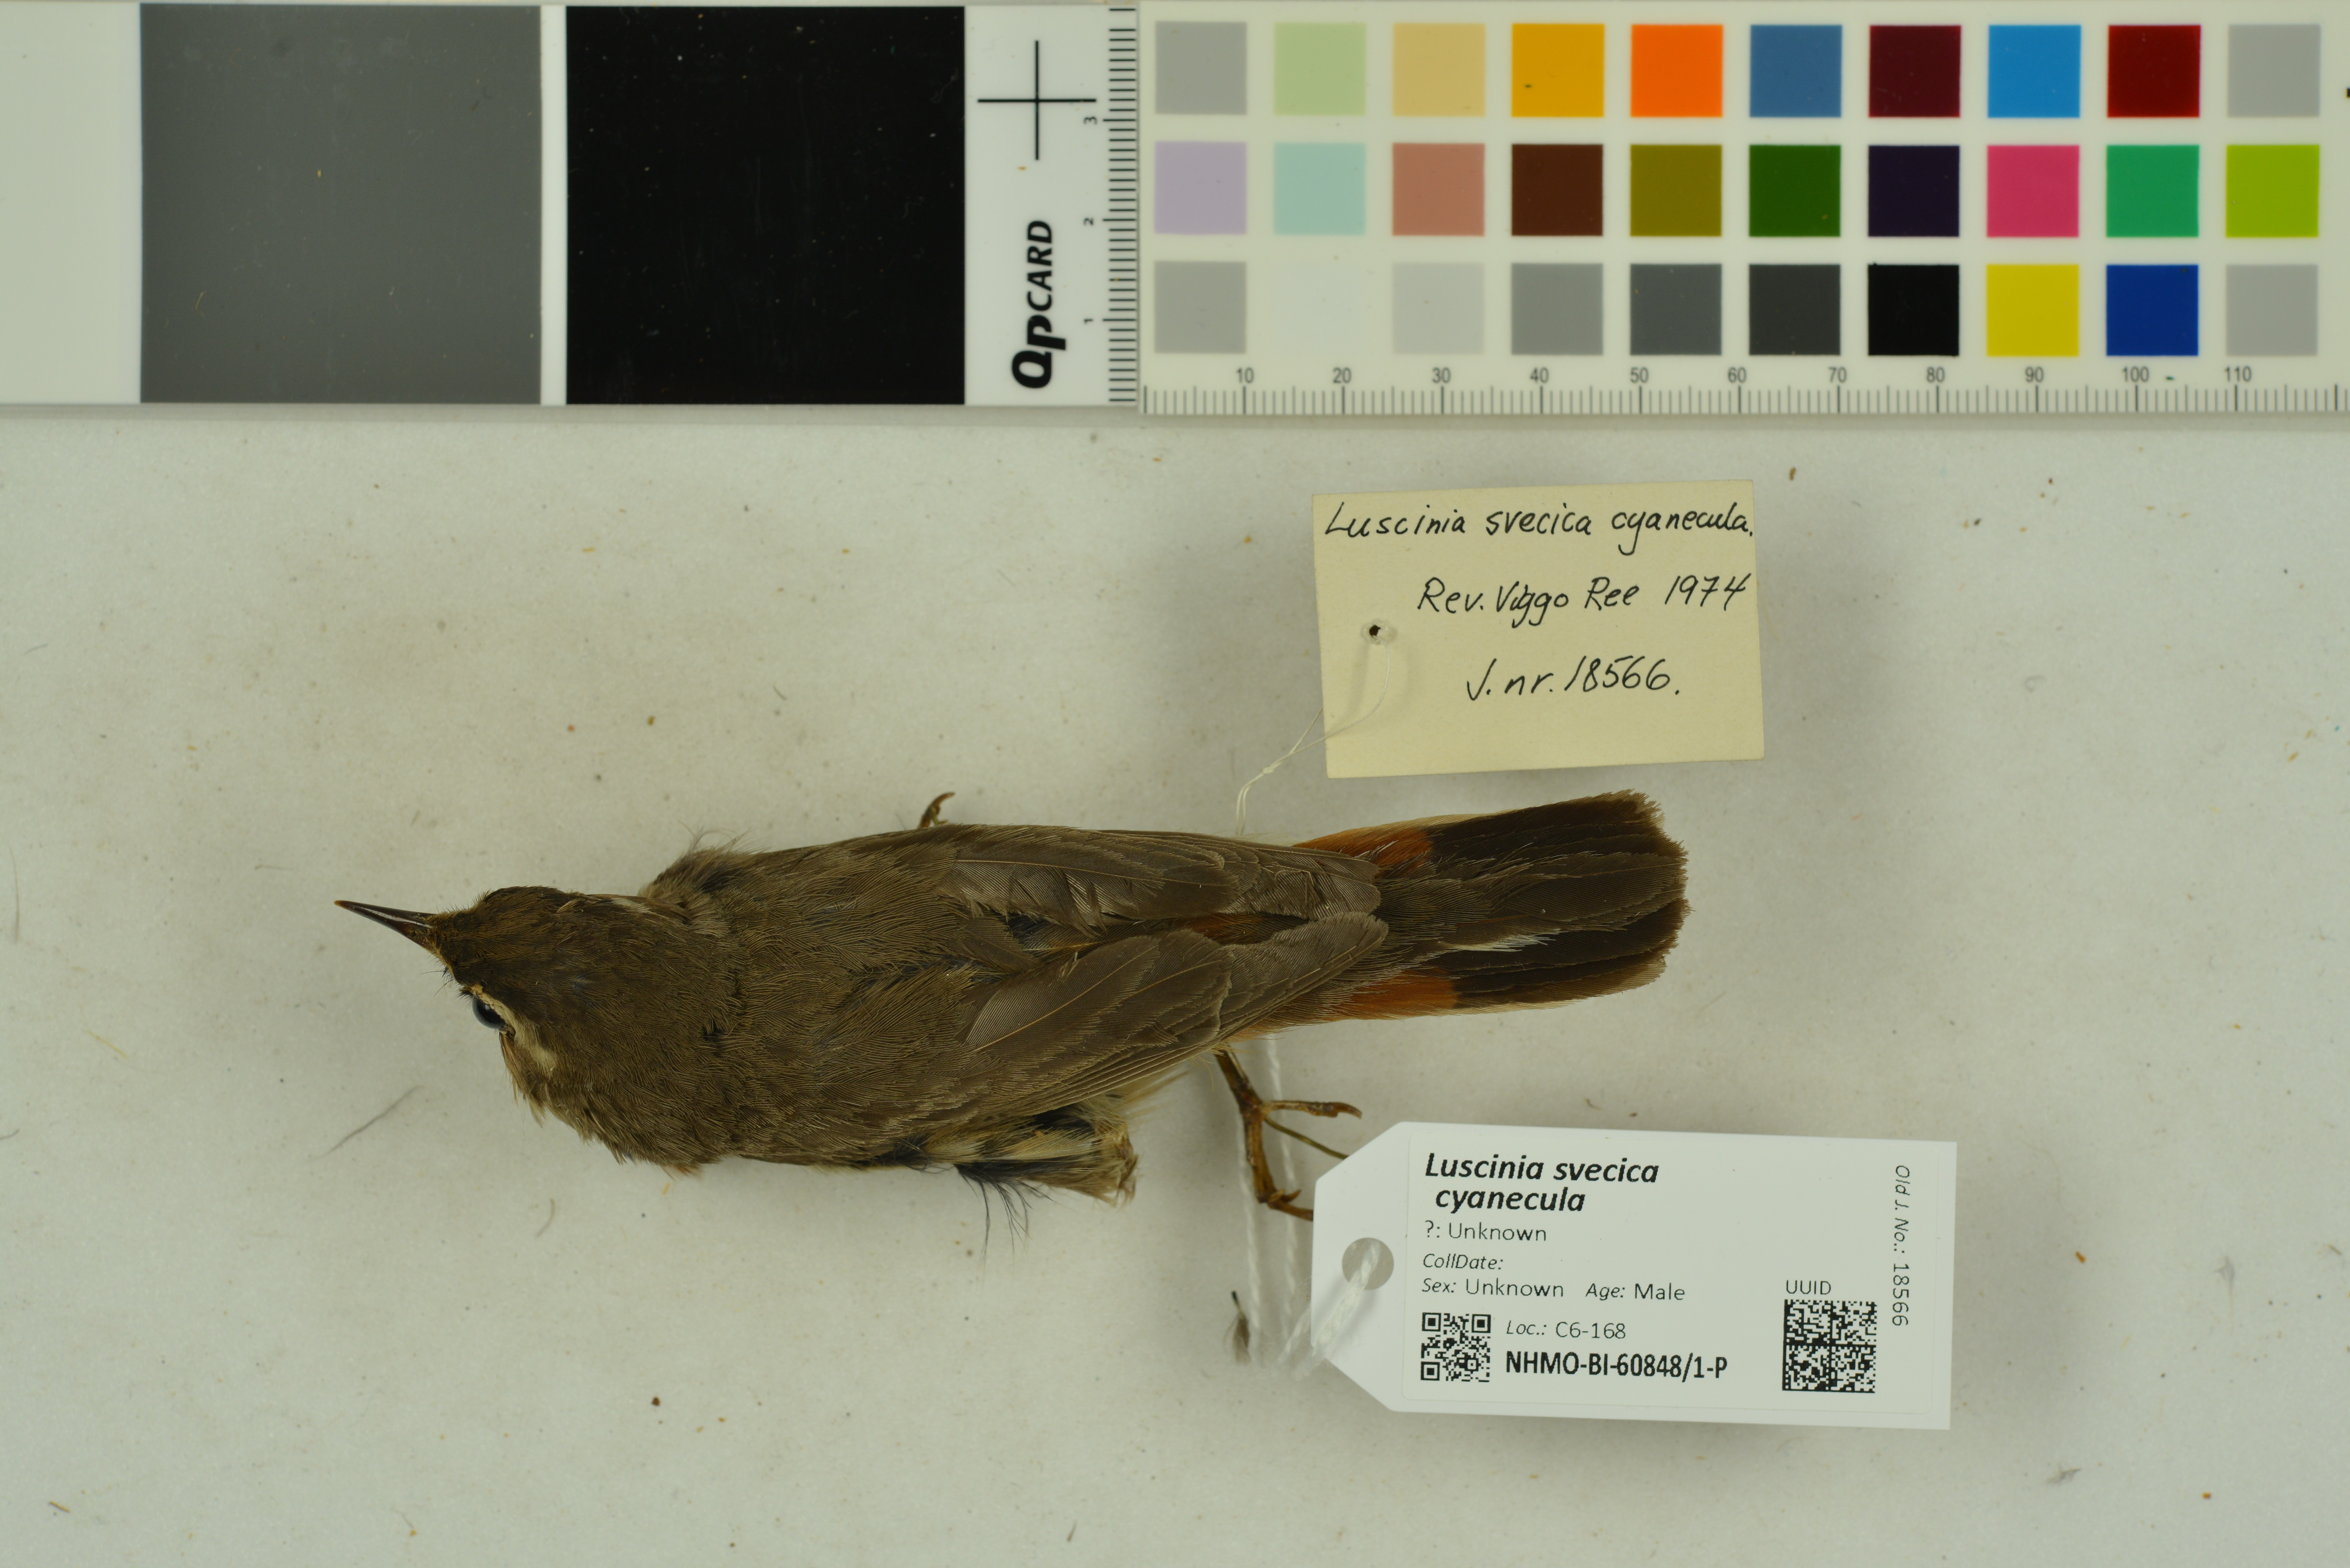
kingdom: Animalia
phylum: Chordata
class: Aves
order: Passeriformes
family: Muscicapidae
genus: Luscinia
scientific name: Luscinia svecica
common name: Bluethroat
